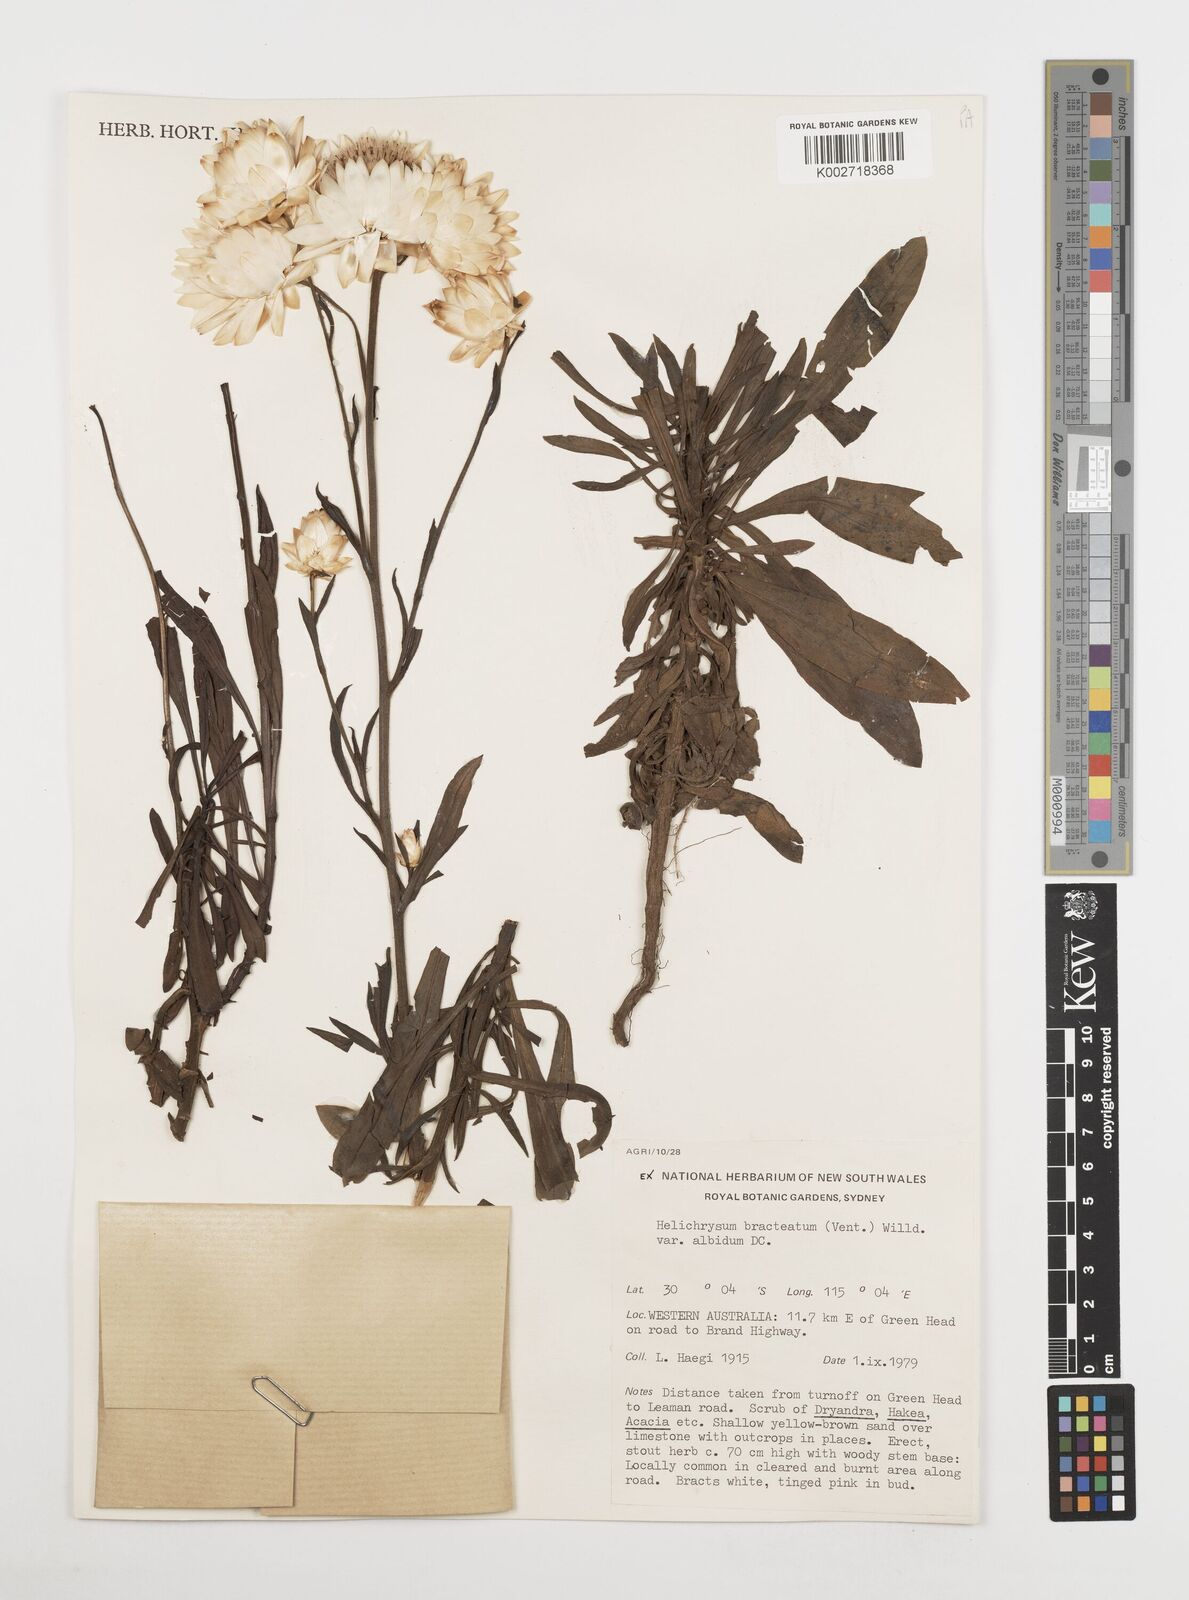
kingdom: Plantae
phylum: Tracheophyta
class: Magnoliopsida
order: Asterales
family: Asteraceae
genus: Xerochrysum
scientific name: Xerochrysum bracteatum
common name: Bracted strawflower
